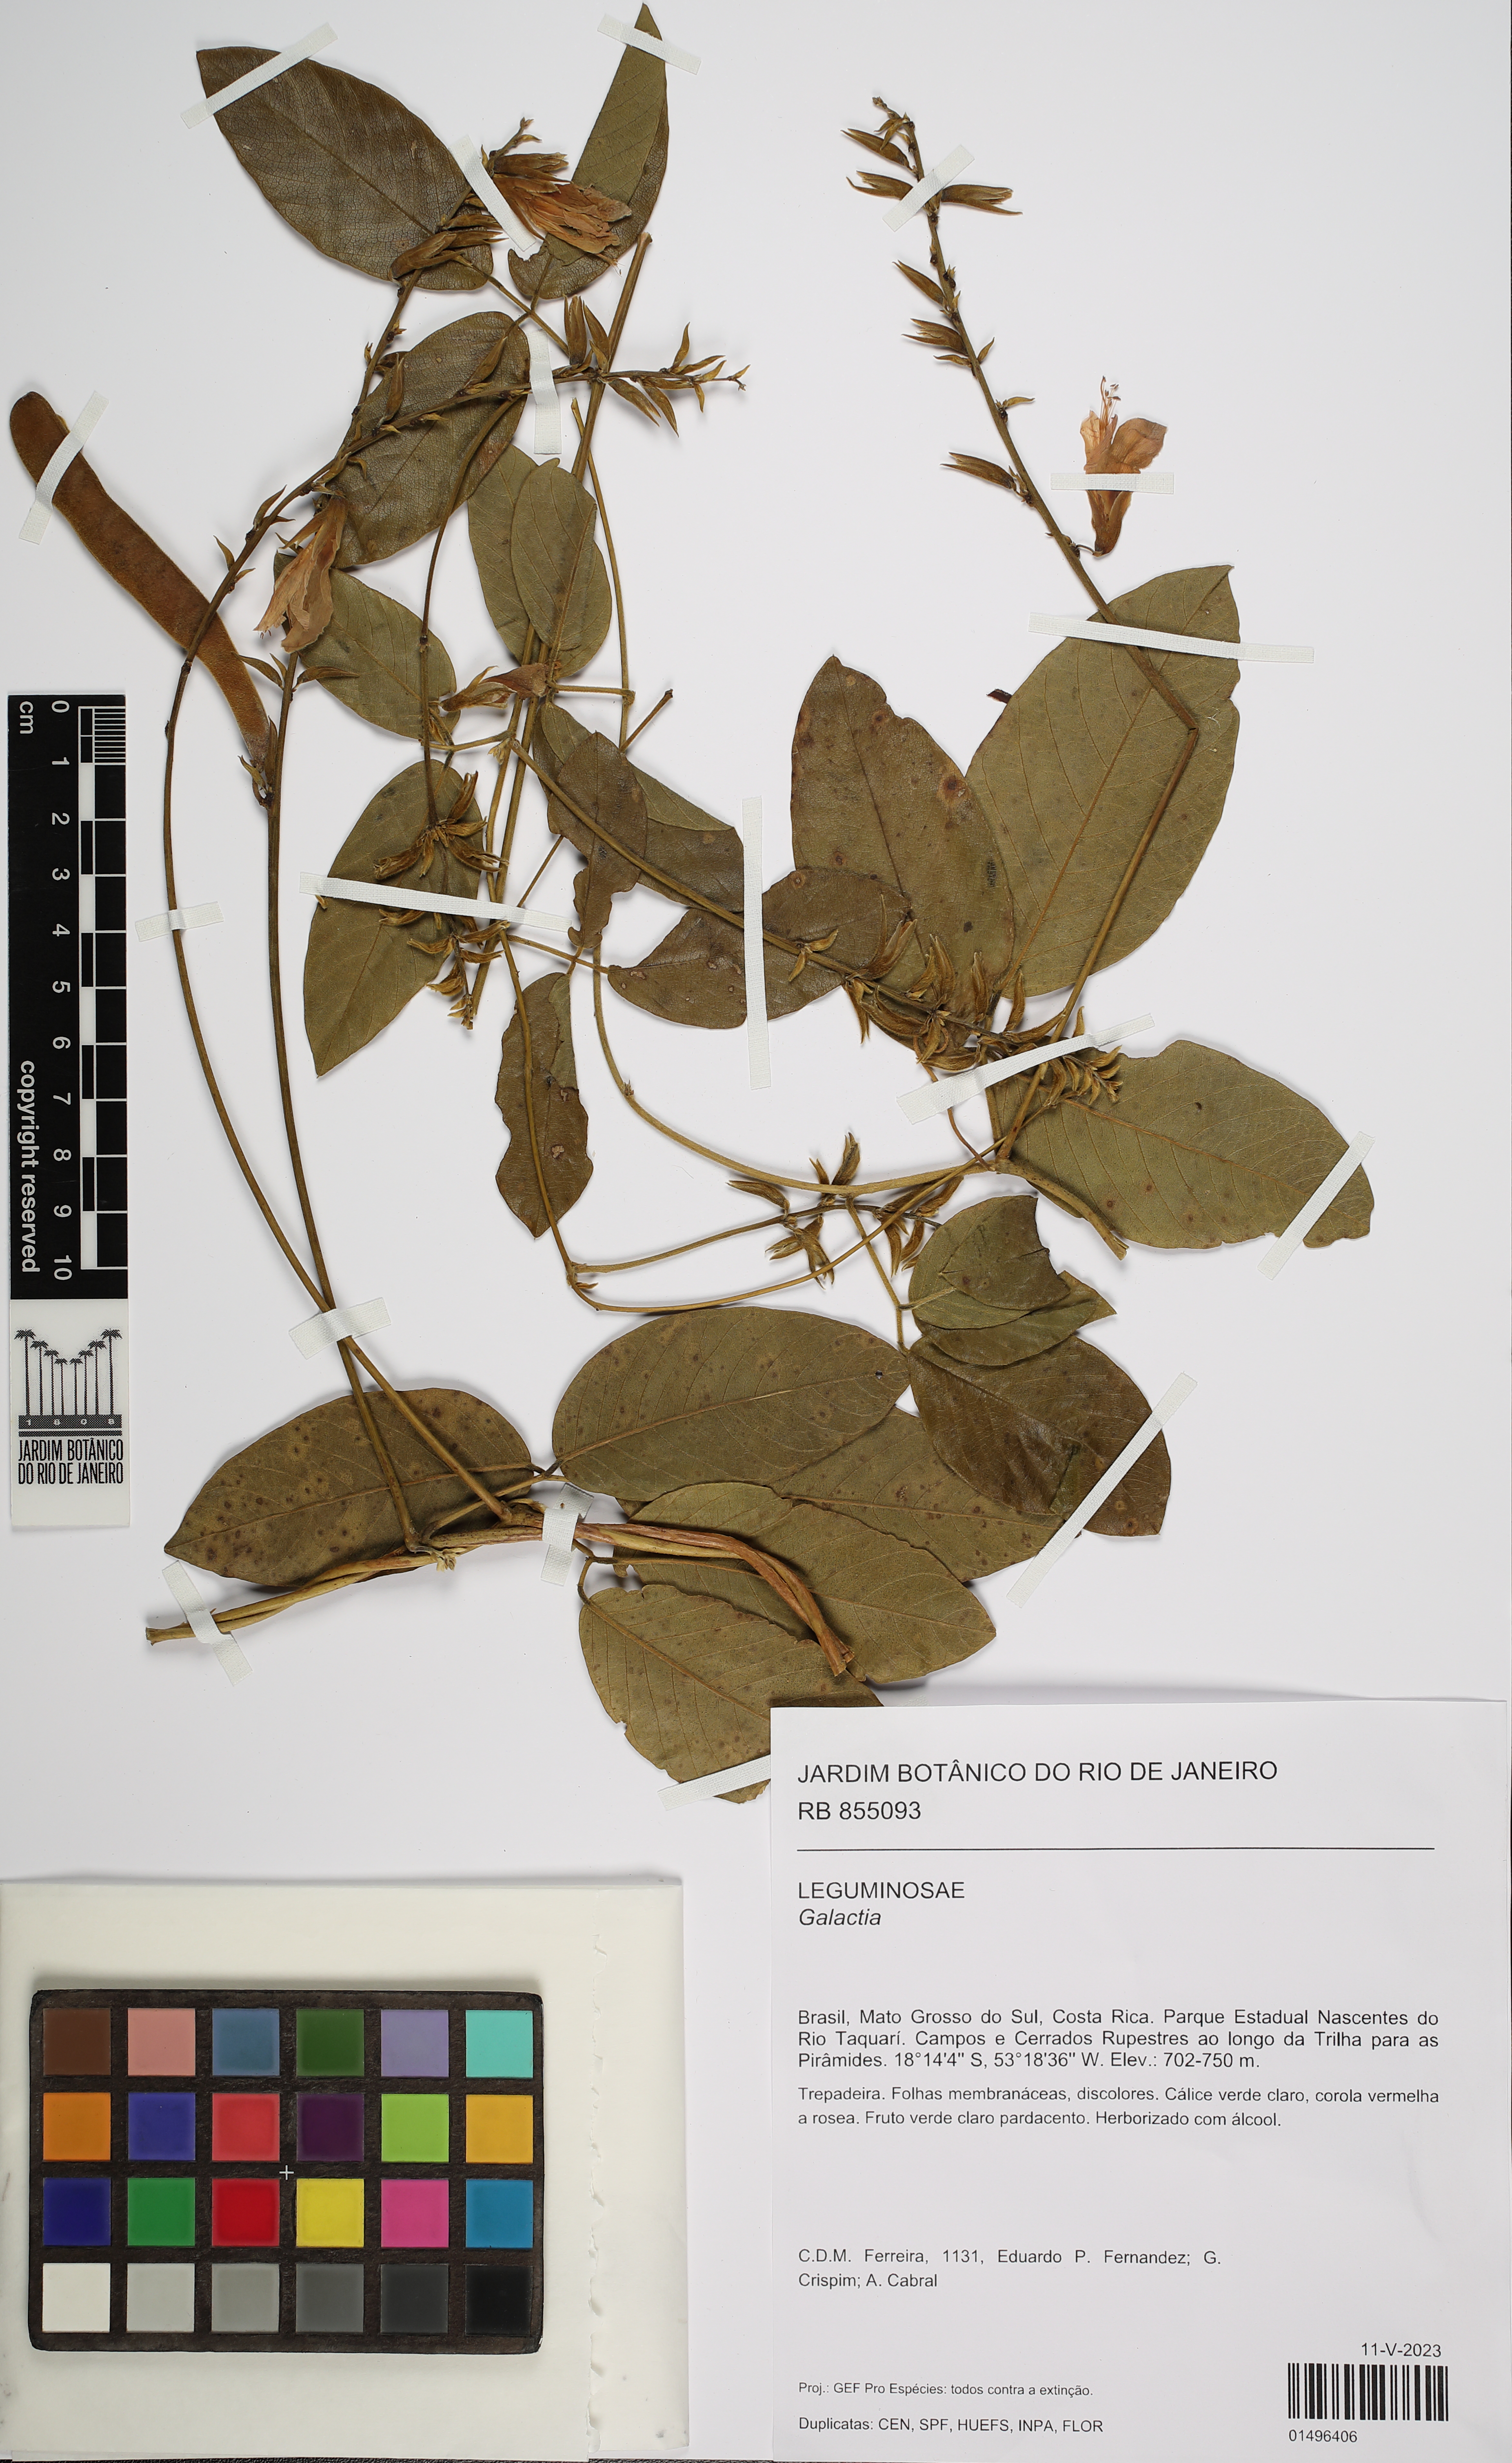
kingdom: Plantae
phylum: Tracheophyta
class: Magnoliopsida
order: Fabales
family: Fabaceae
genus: Galactia
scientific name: Galactia
